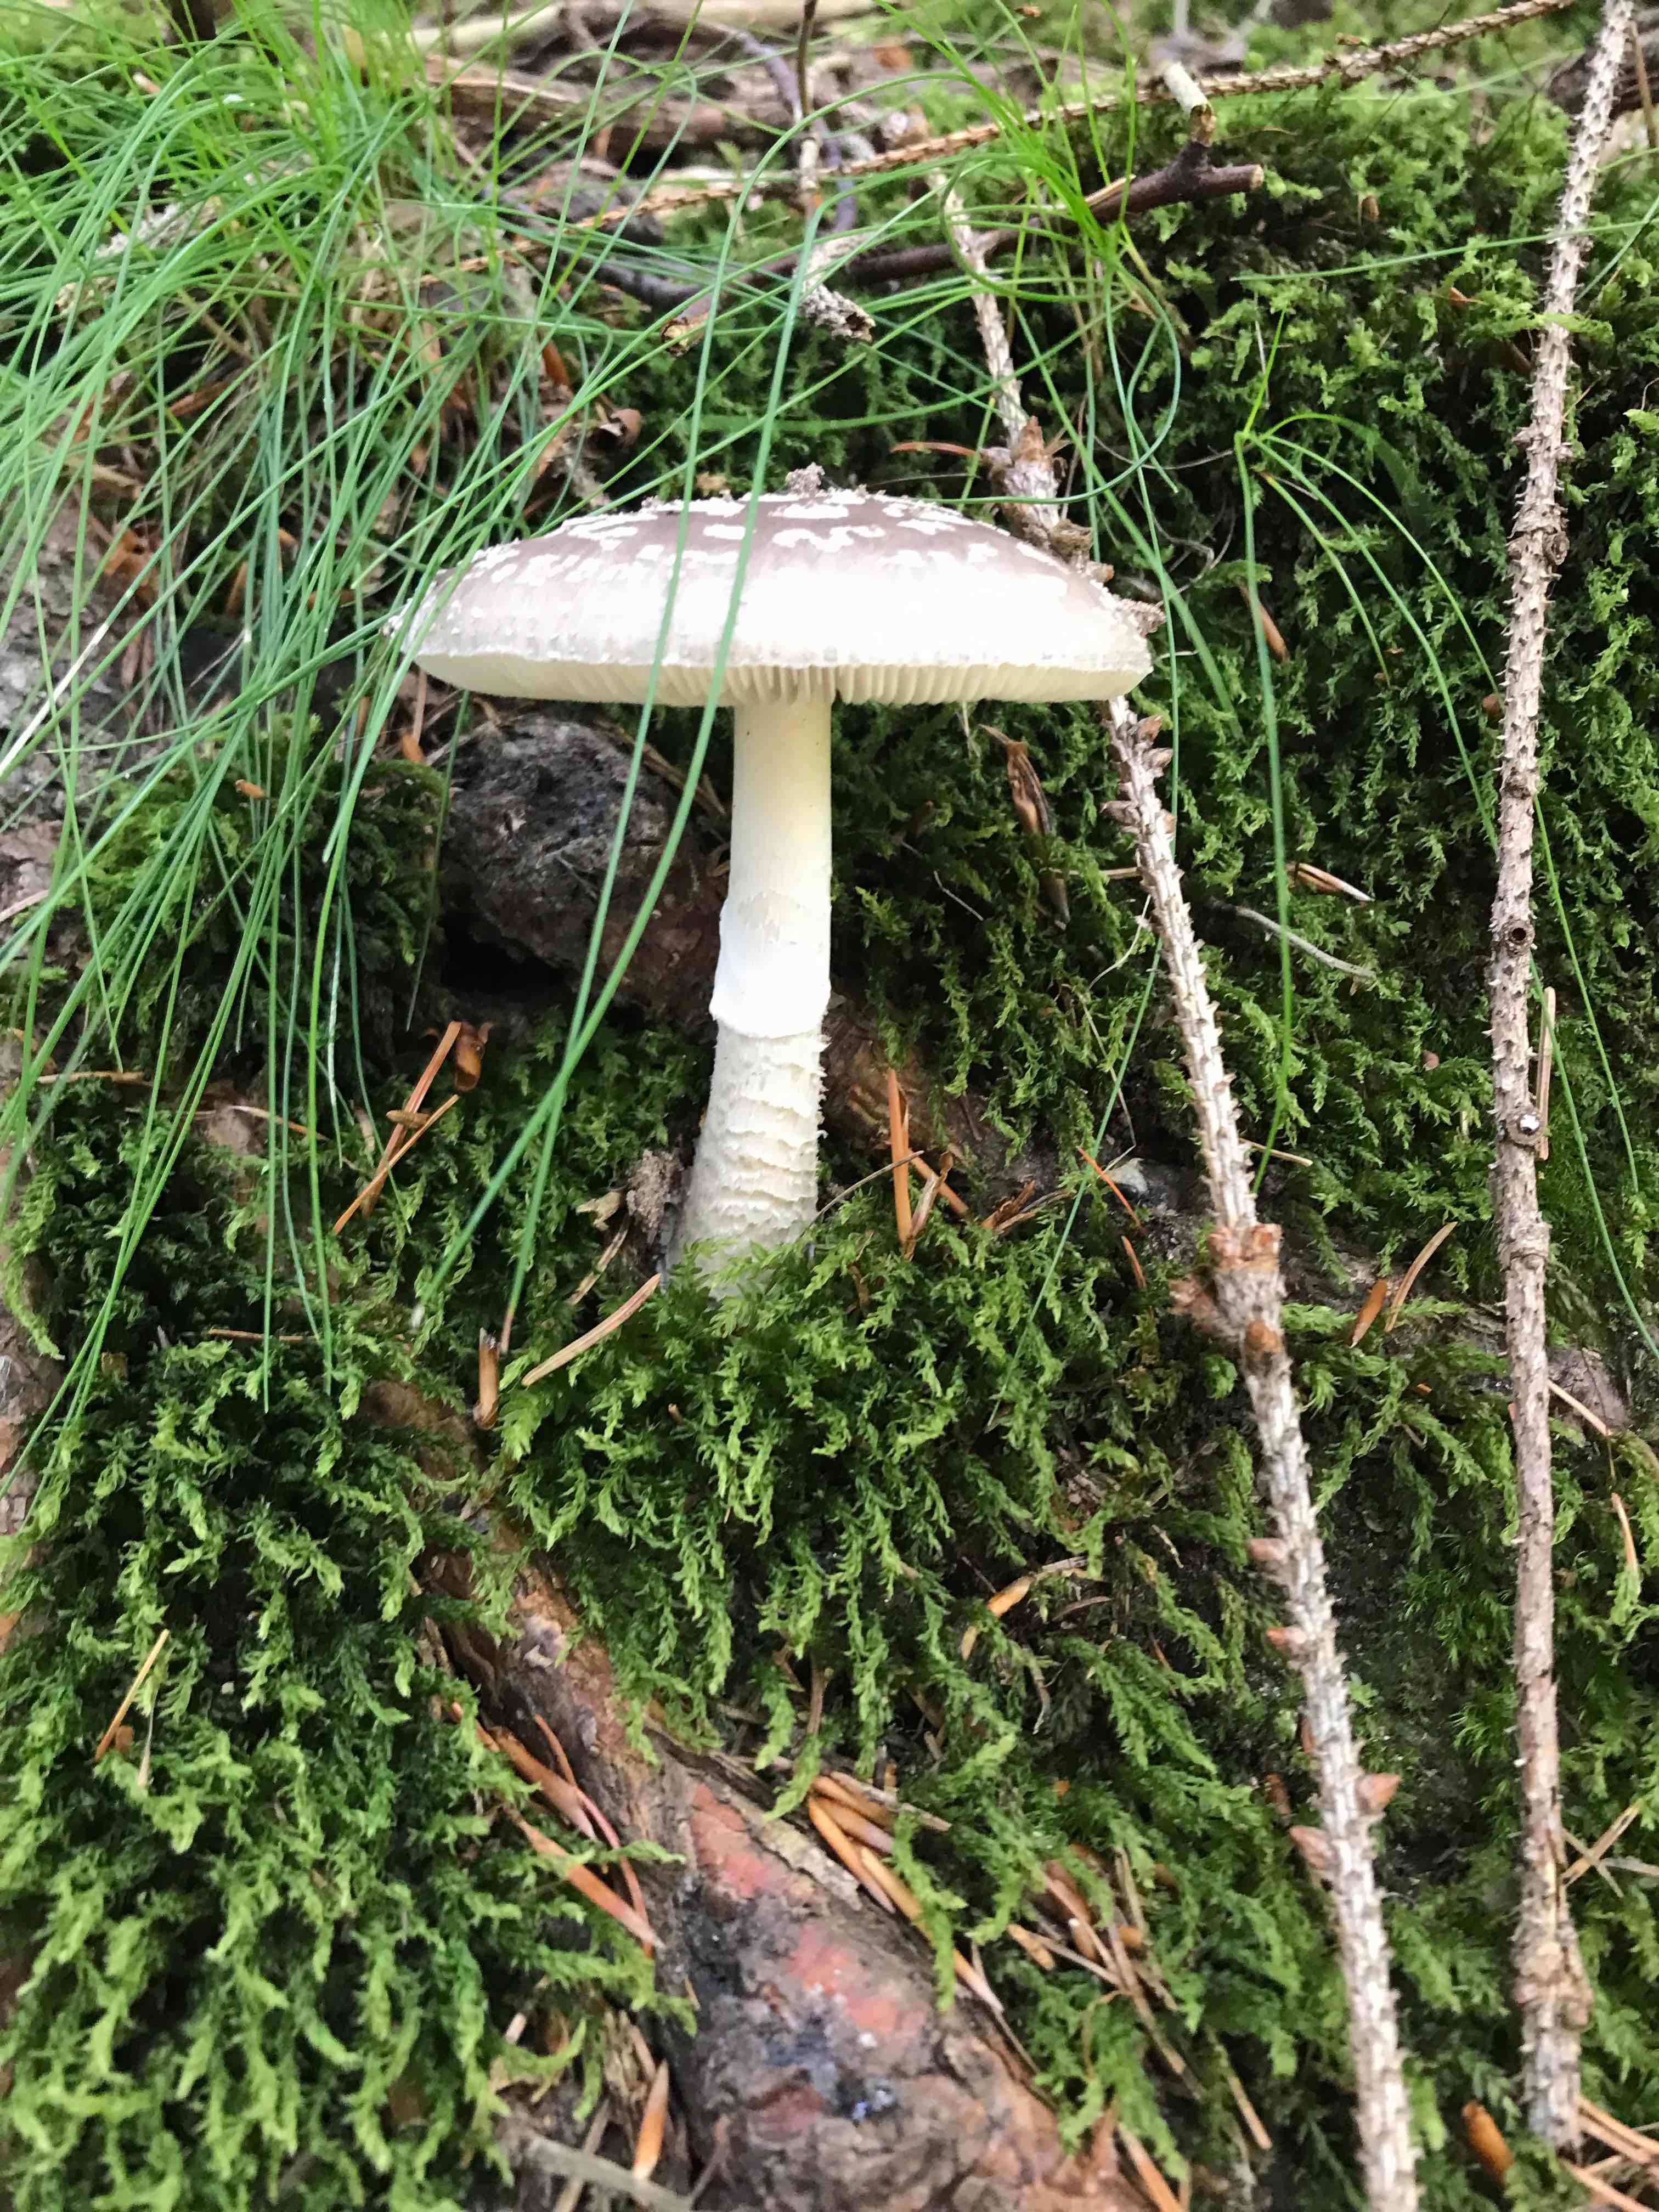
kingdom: Fungi
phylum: Basidiomycota
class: Agaricomycetes
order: Agaricales
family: Amanitaceae
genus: Amanita
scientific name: Amanita
